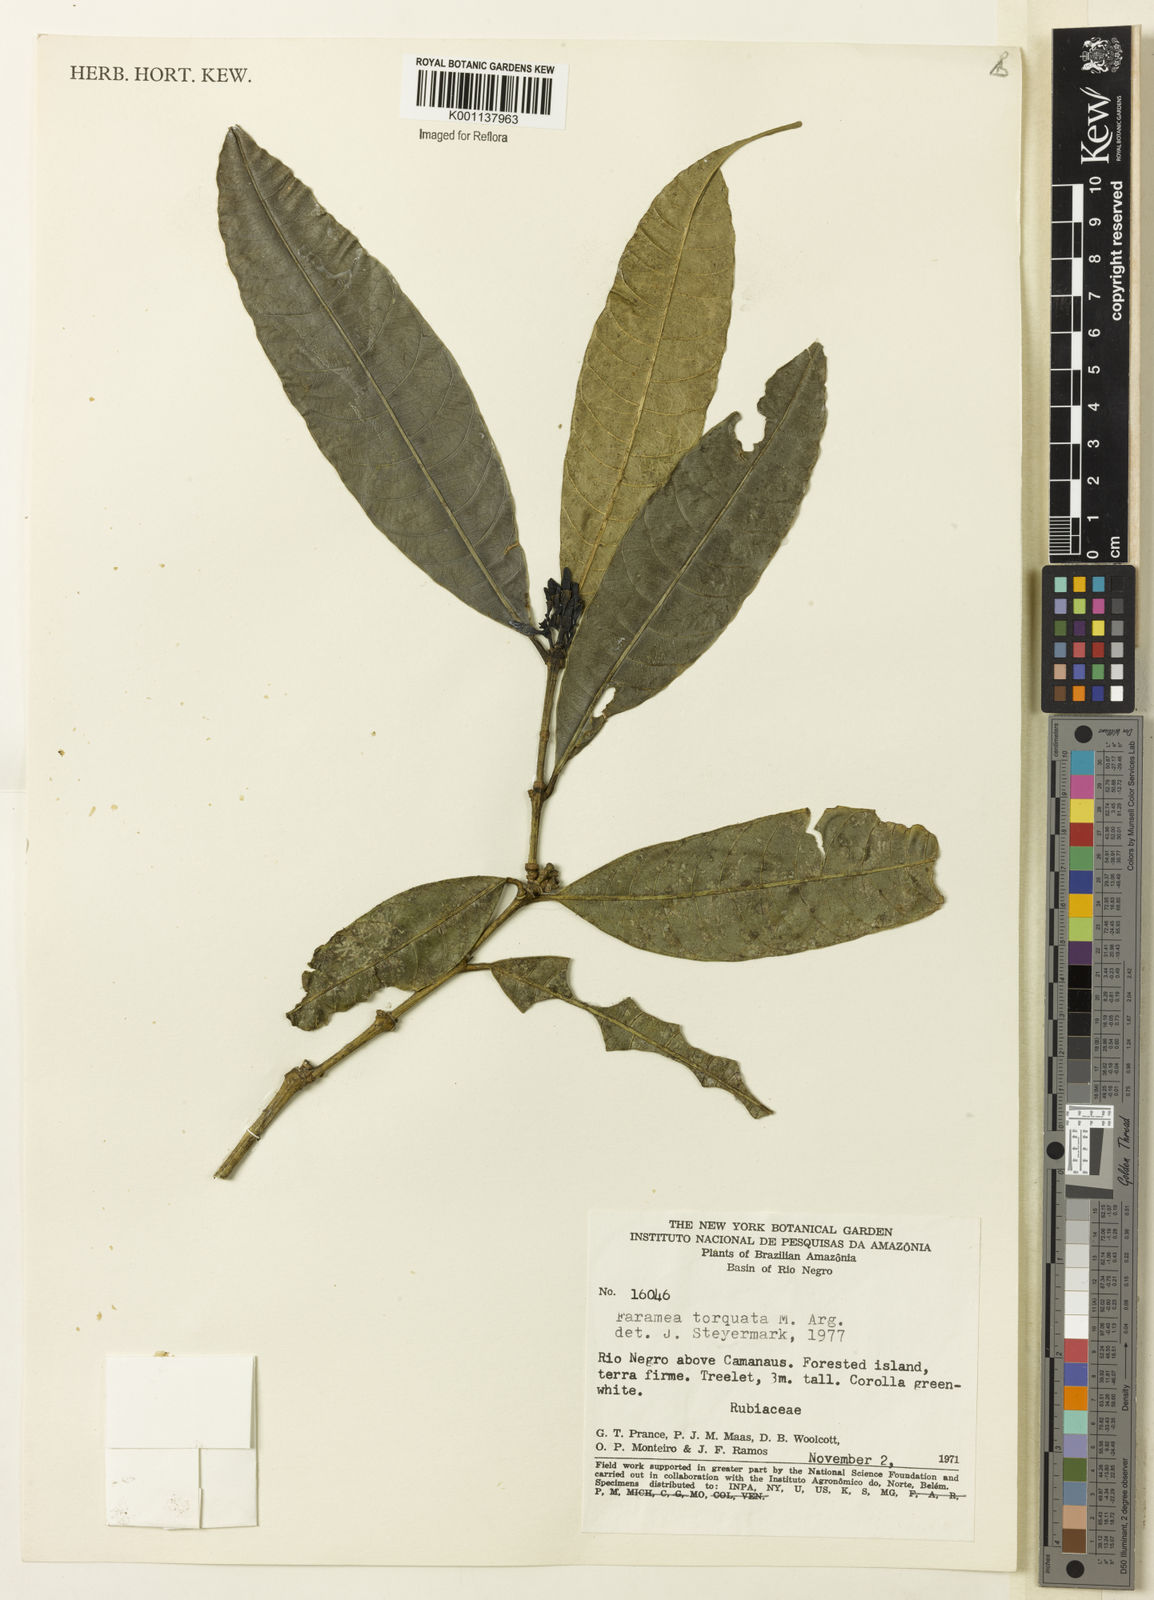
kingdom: Plantae
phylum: Tracheophyta
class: Magnoliopsida
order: Gentianales
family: Rubiaceae
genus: Faramea
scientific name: Faramea
